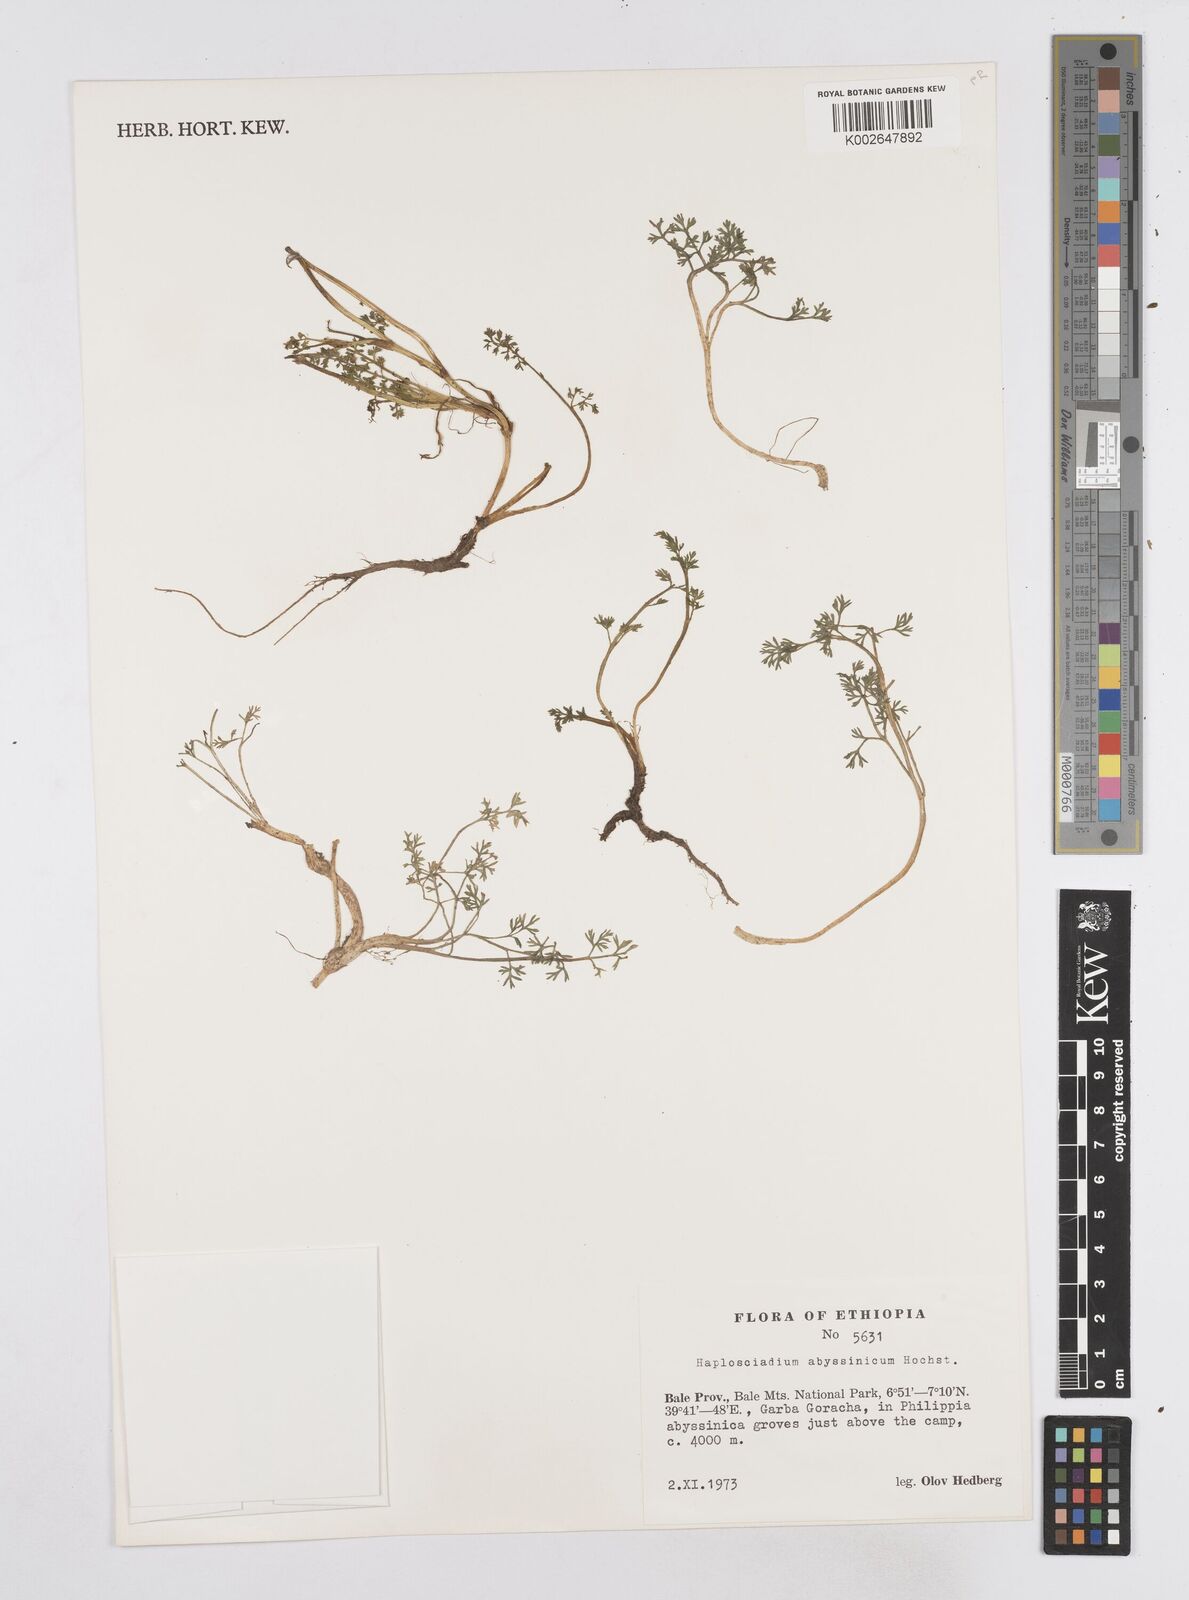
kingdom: Plantae
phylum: Tracheophyta
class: Magnoliopsida
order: Apiales
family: Apiaceae
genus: Haplosciadium
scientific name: Haplosciadium abyssinicum
